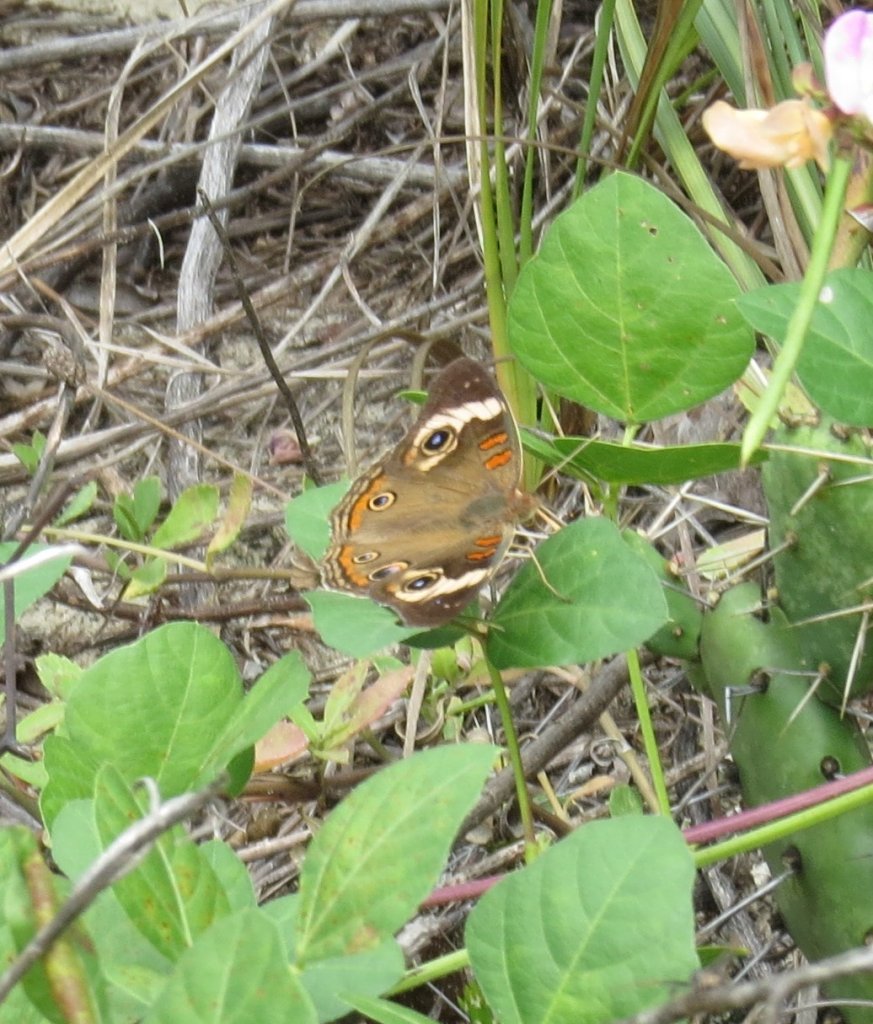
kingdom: Animalia
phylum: Arthropoda
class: Insecta
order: Lepidoptera
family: Nymphalidae
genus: Junonia
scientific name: Junonia coenia
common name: Common Buckeye
